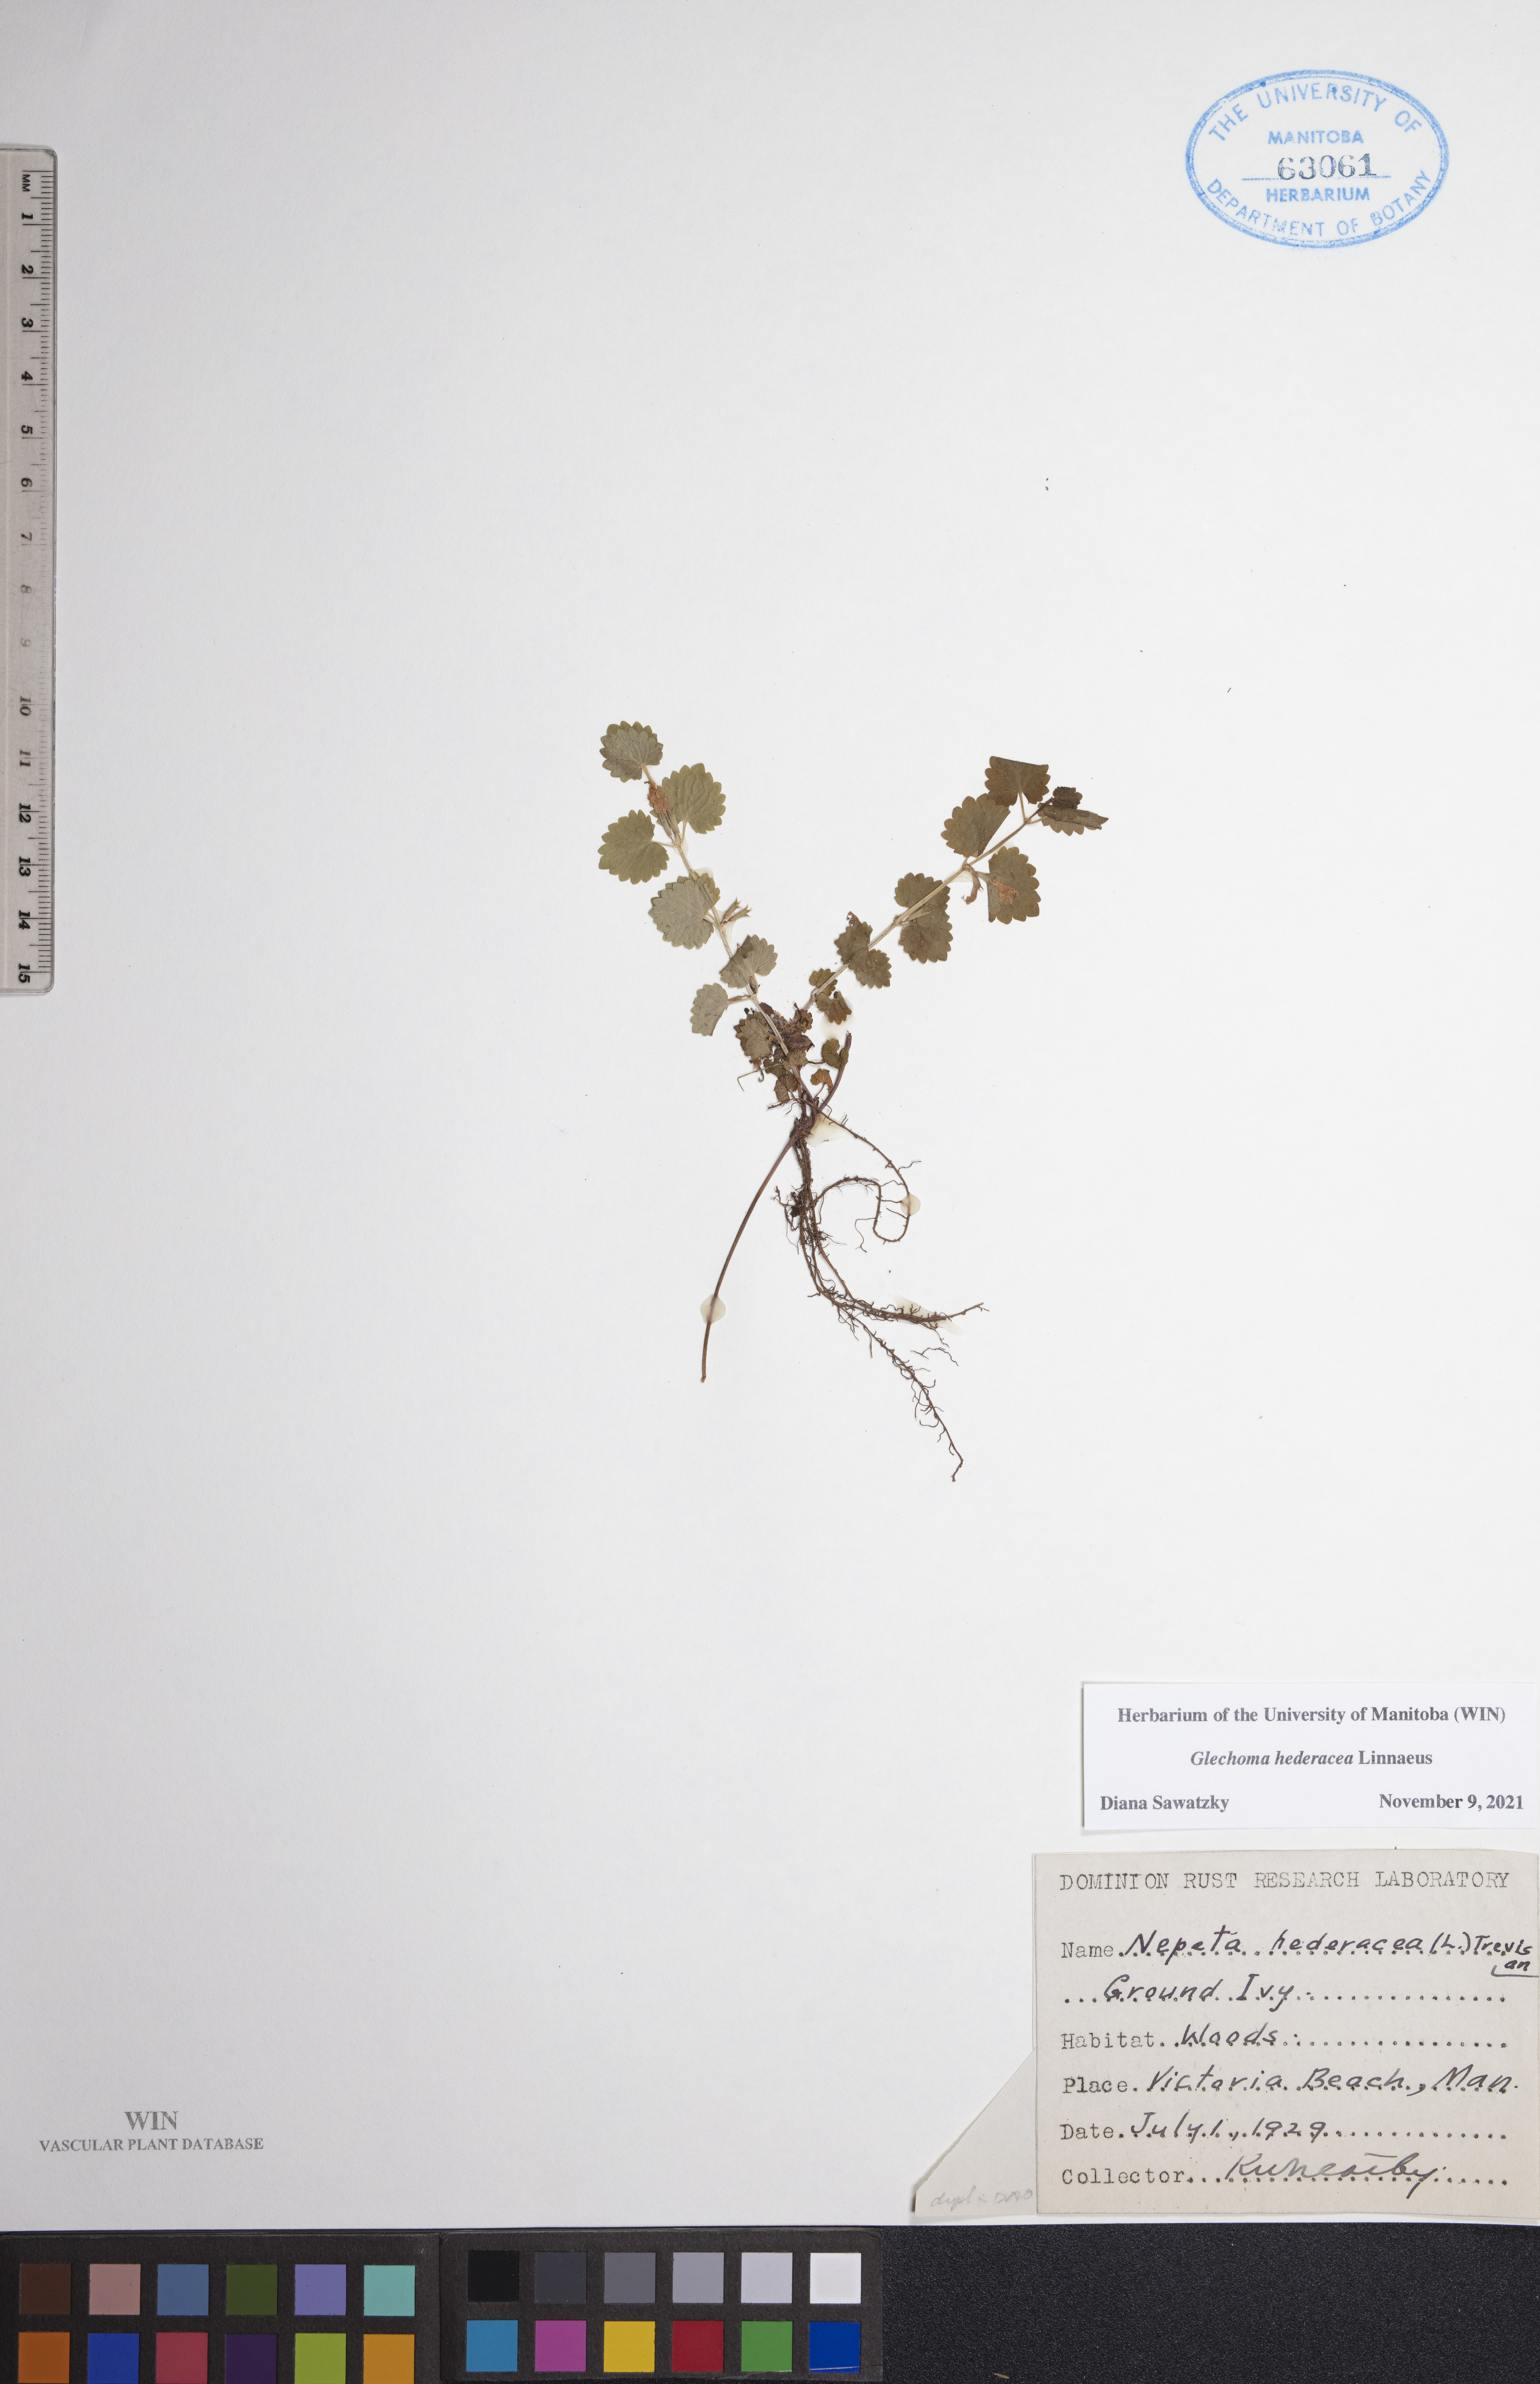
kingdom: Plantae
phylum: Tracheophyta
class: Magnoliopsida
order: Lamiales
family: Lamiaceae
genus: Glechoma
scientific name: Glechoma hederacea
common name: Ground ivy
